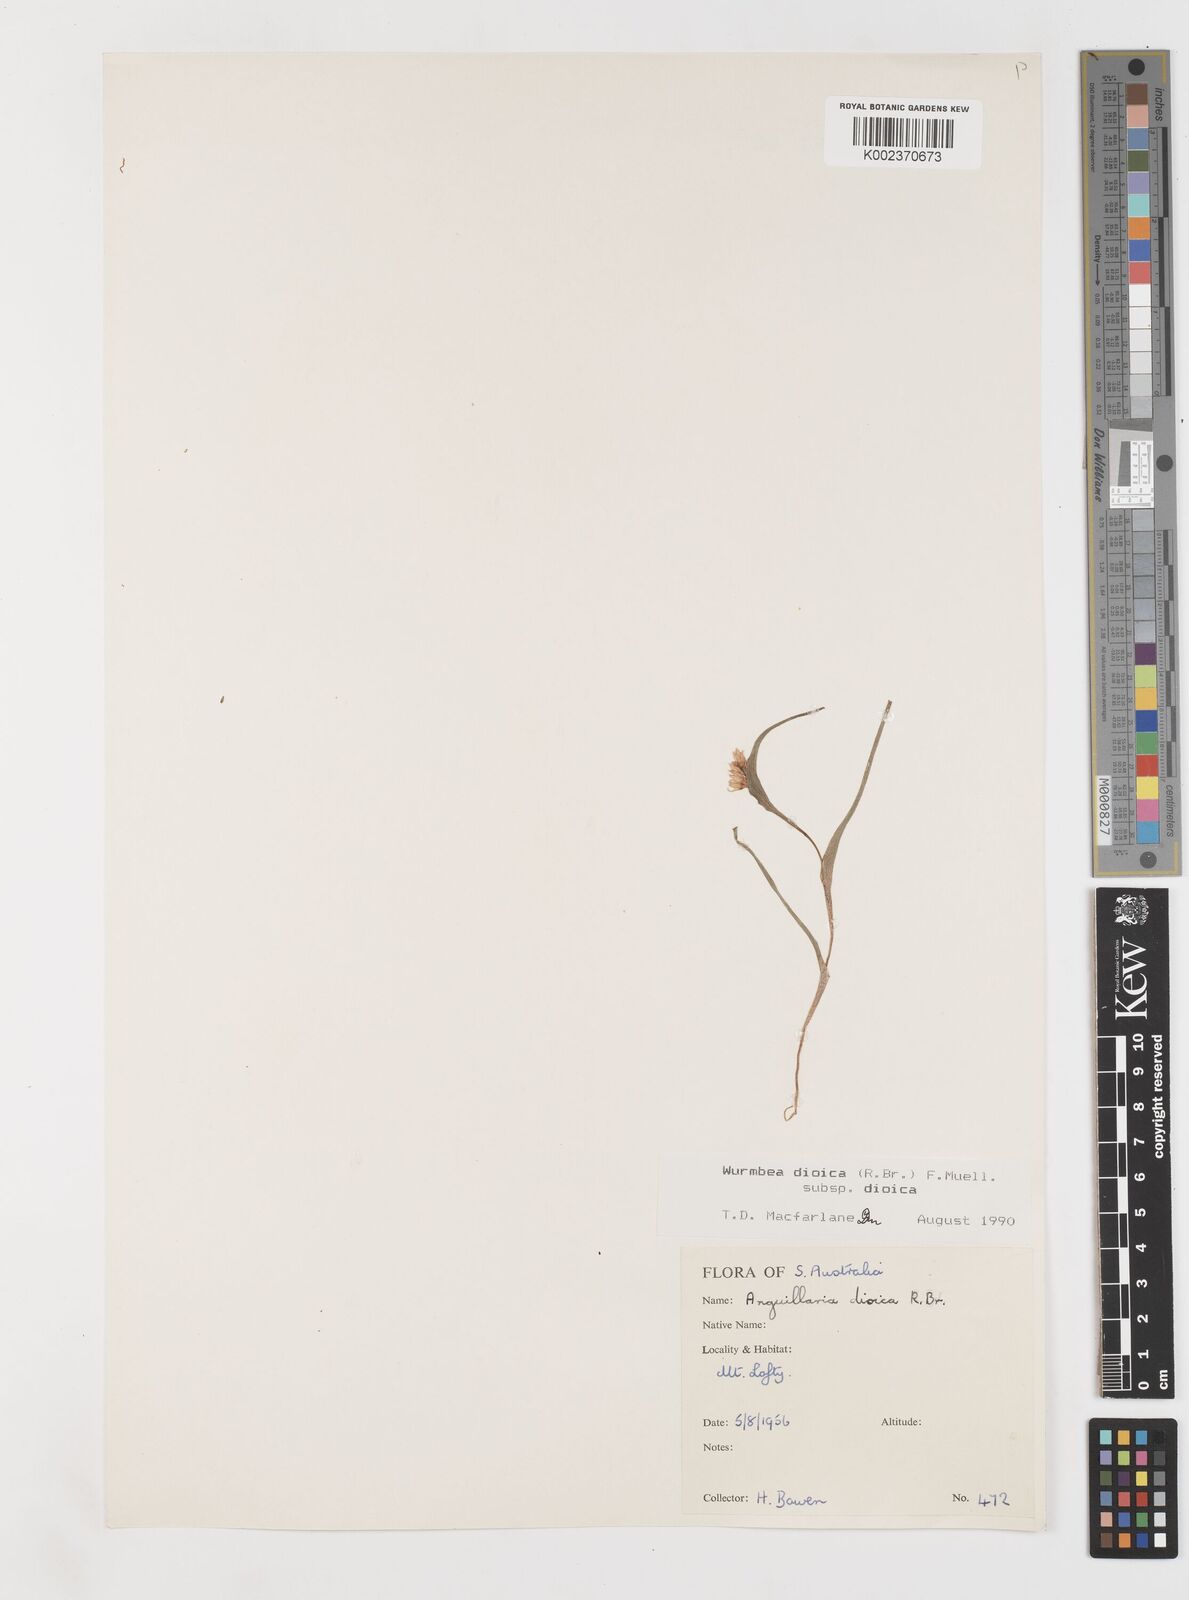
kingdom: Plantae
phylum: Tracheophyta
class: Liliopsida
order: Liliales
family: Colchicaceae
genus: Wurmbea
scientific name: Wurmbea dioica
